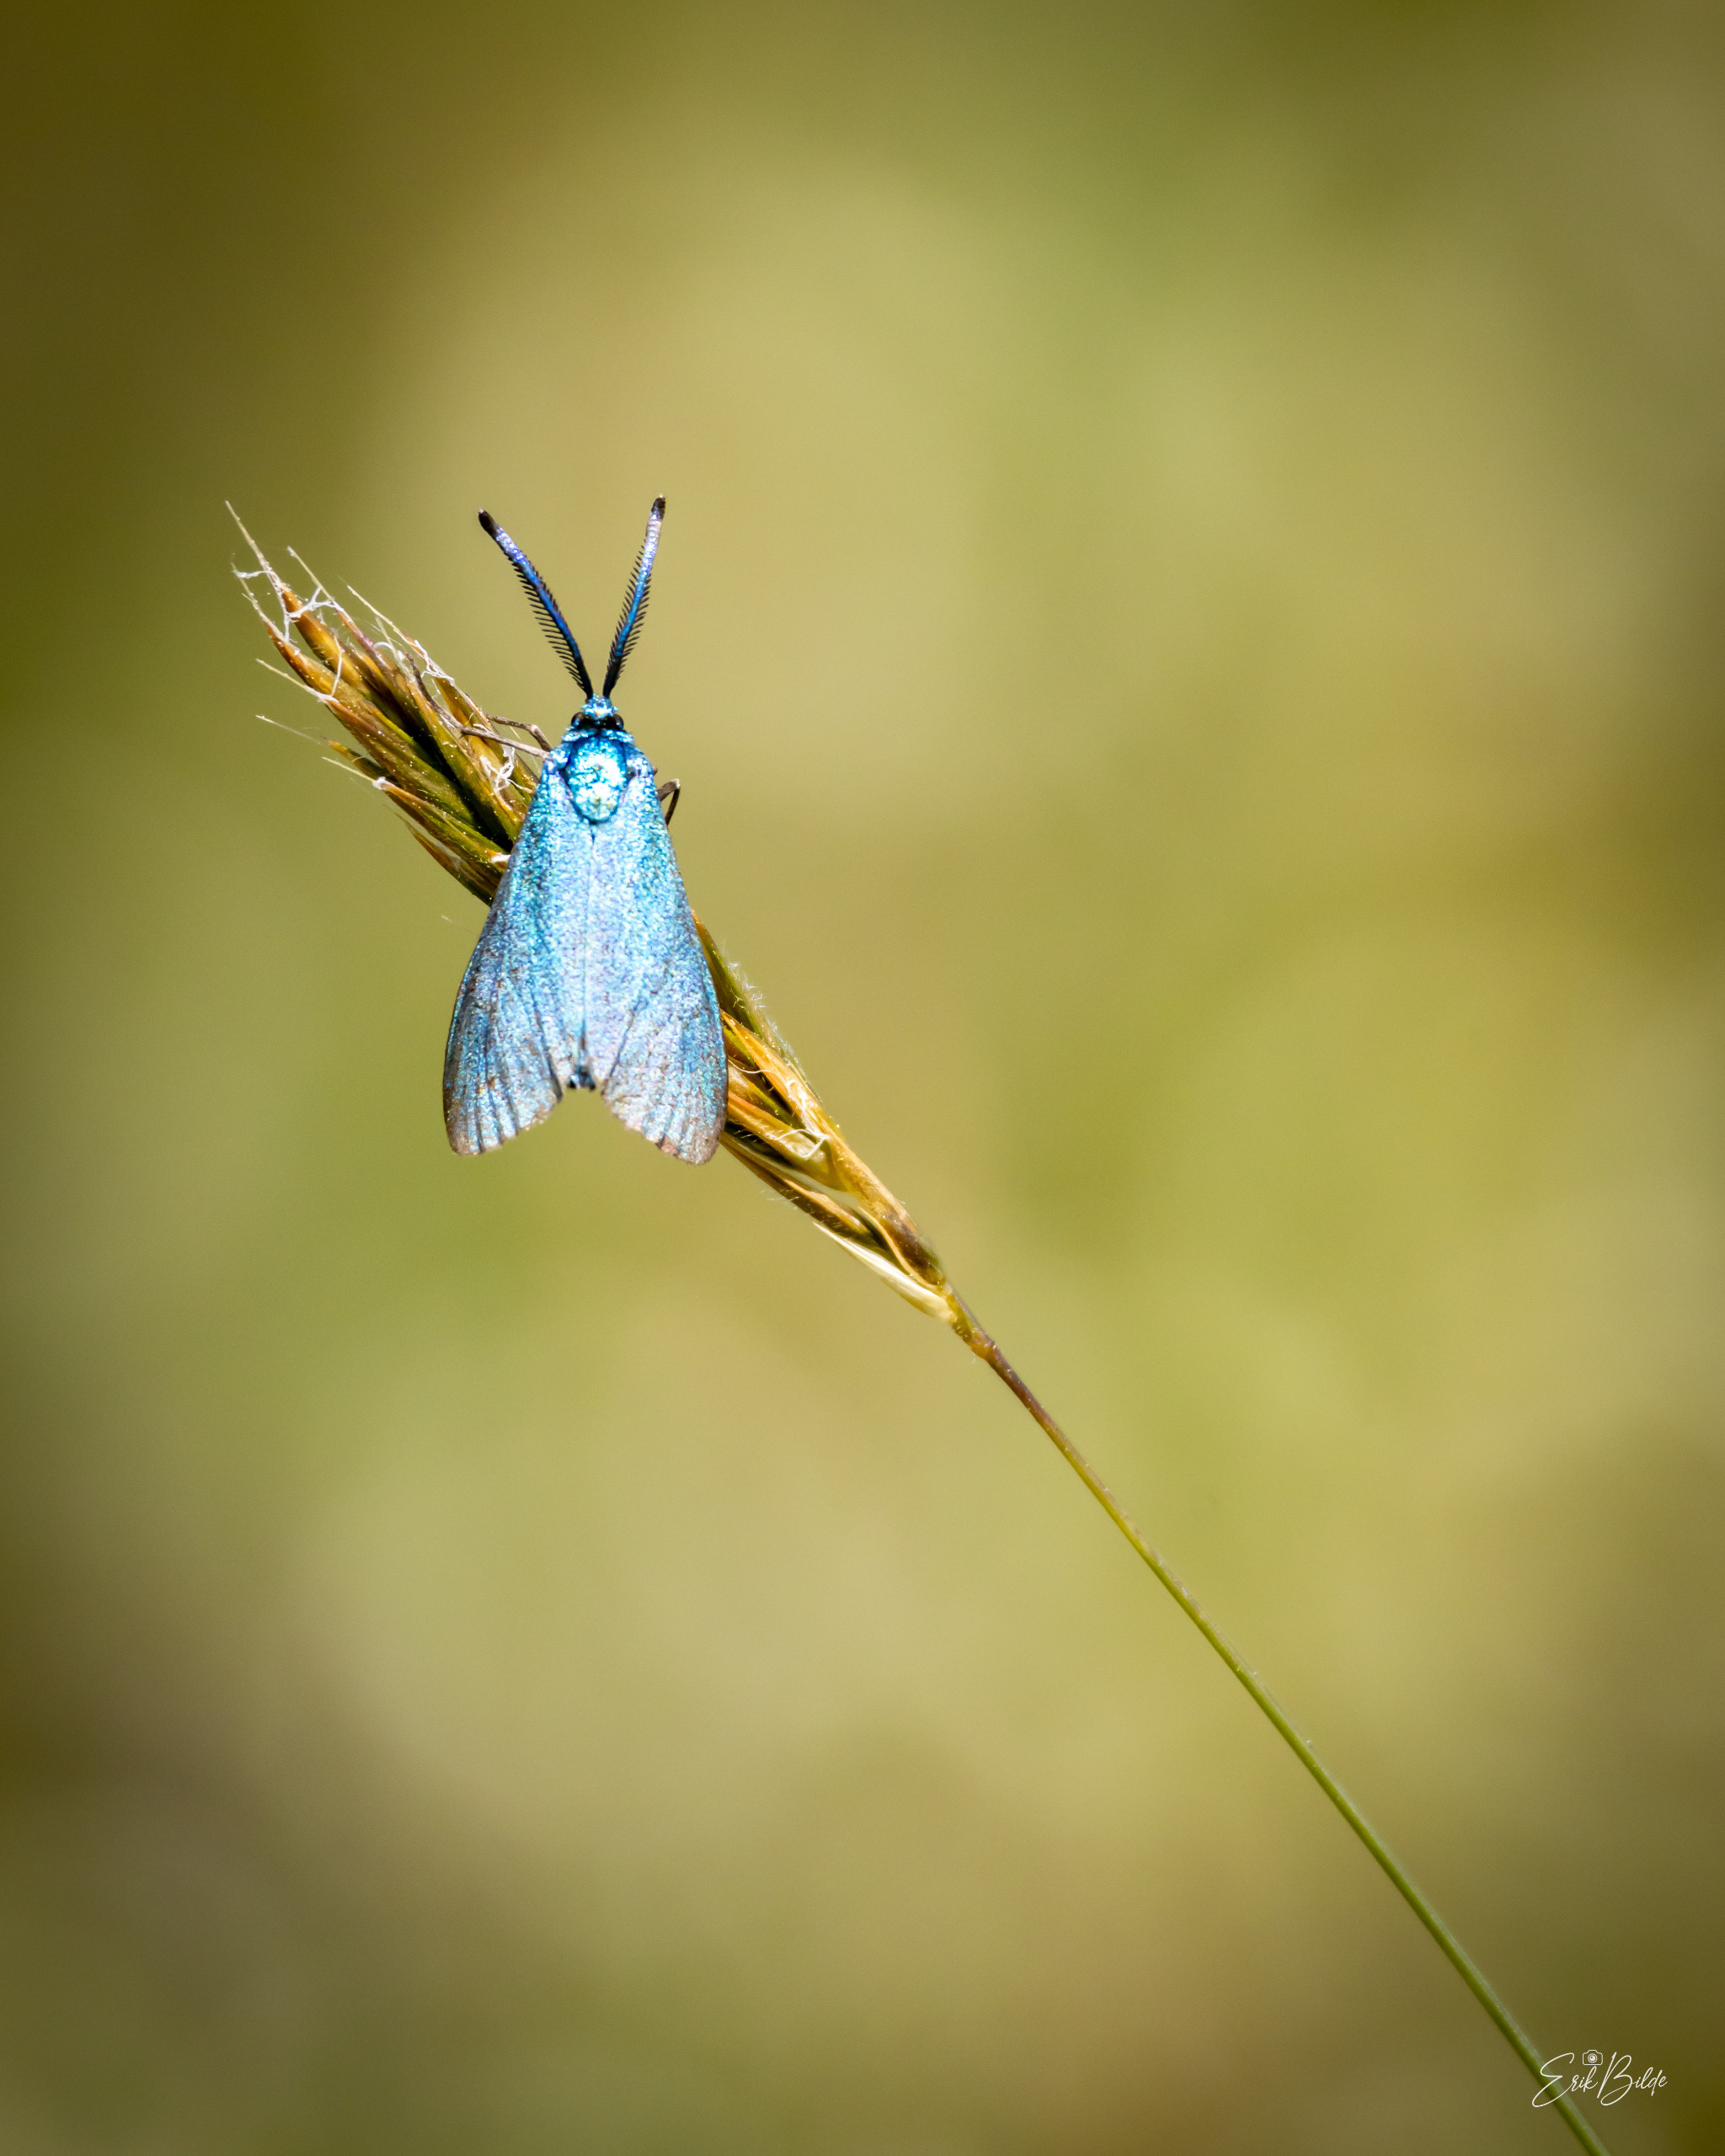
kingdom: Animalia
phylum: Arthropoda
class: Insecta
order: Lepidoptera
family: Zygaenidae
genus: Adscita
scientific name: Adscita statices
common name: Metalvinge
